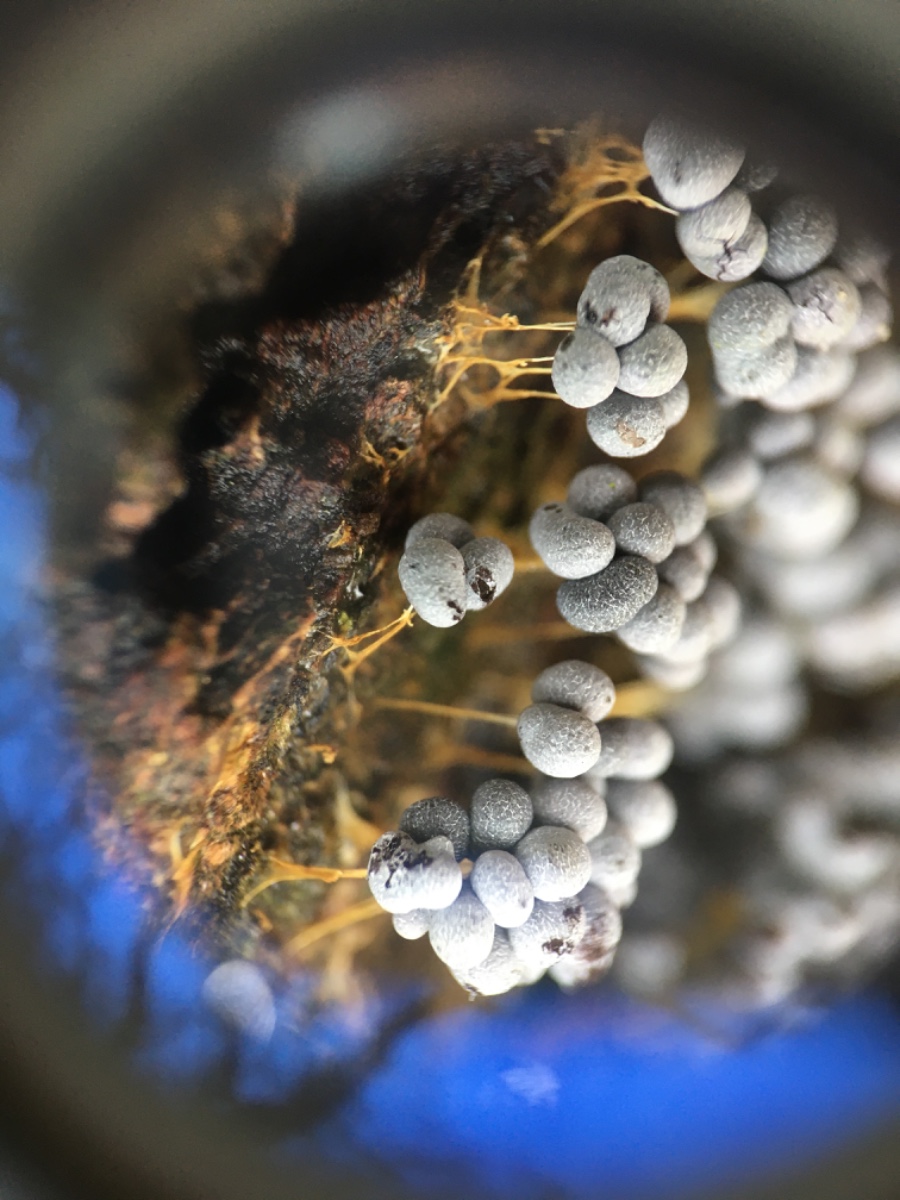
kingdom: Protozoa
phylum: Mycetozoa
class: Myxomycetes
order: Physarales
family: Physaraceae
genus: Badhamia
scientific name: Badhamia utricularis
